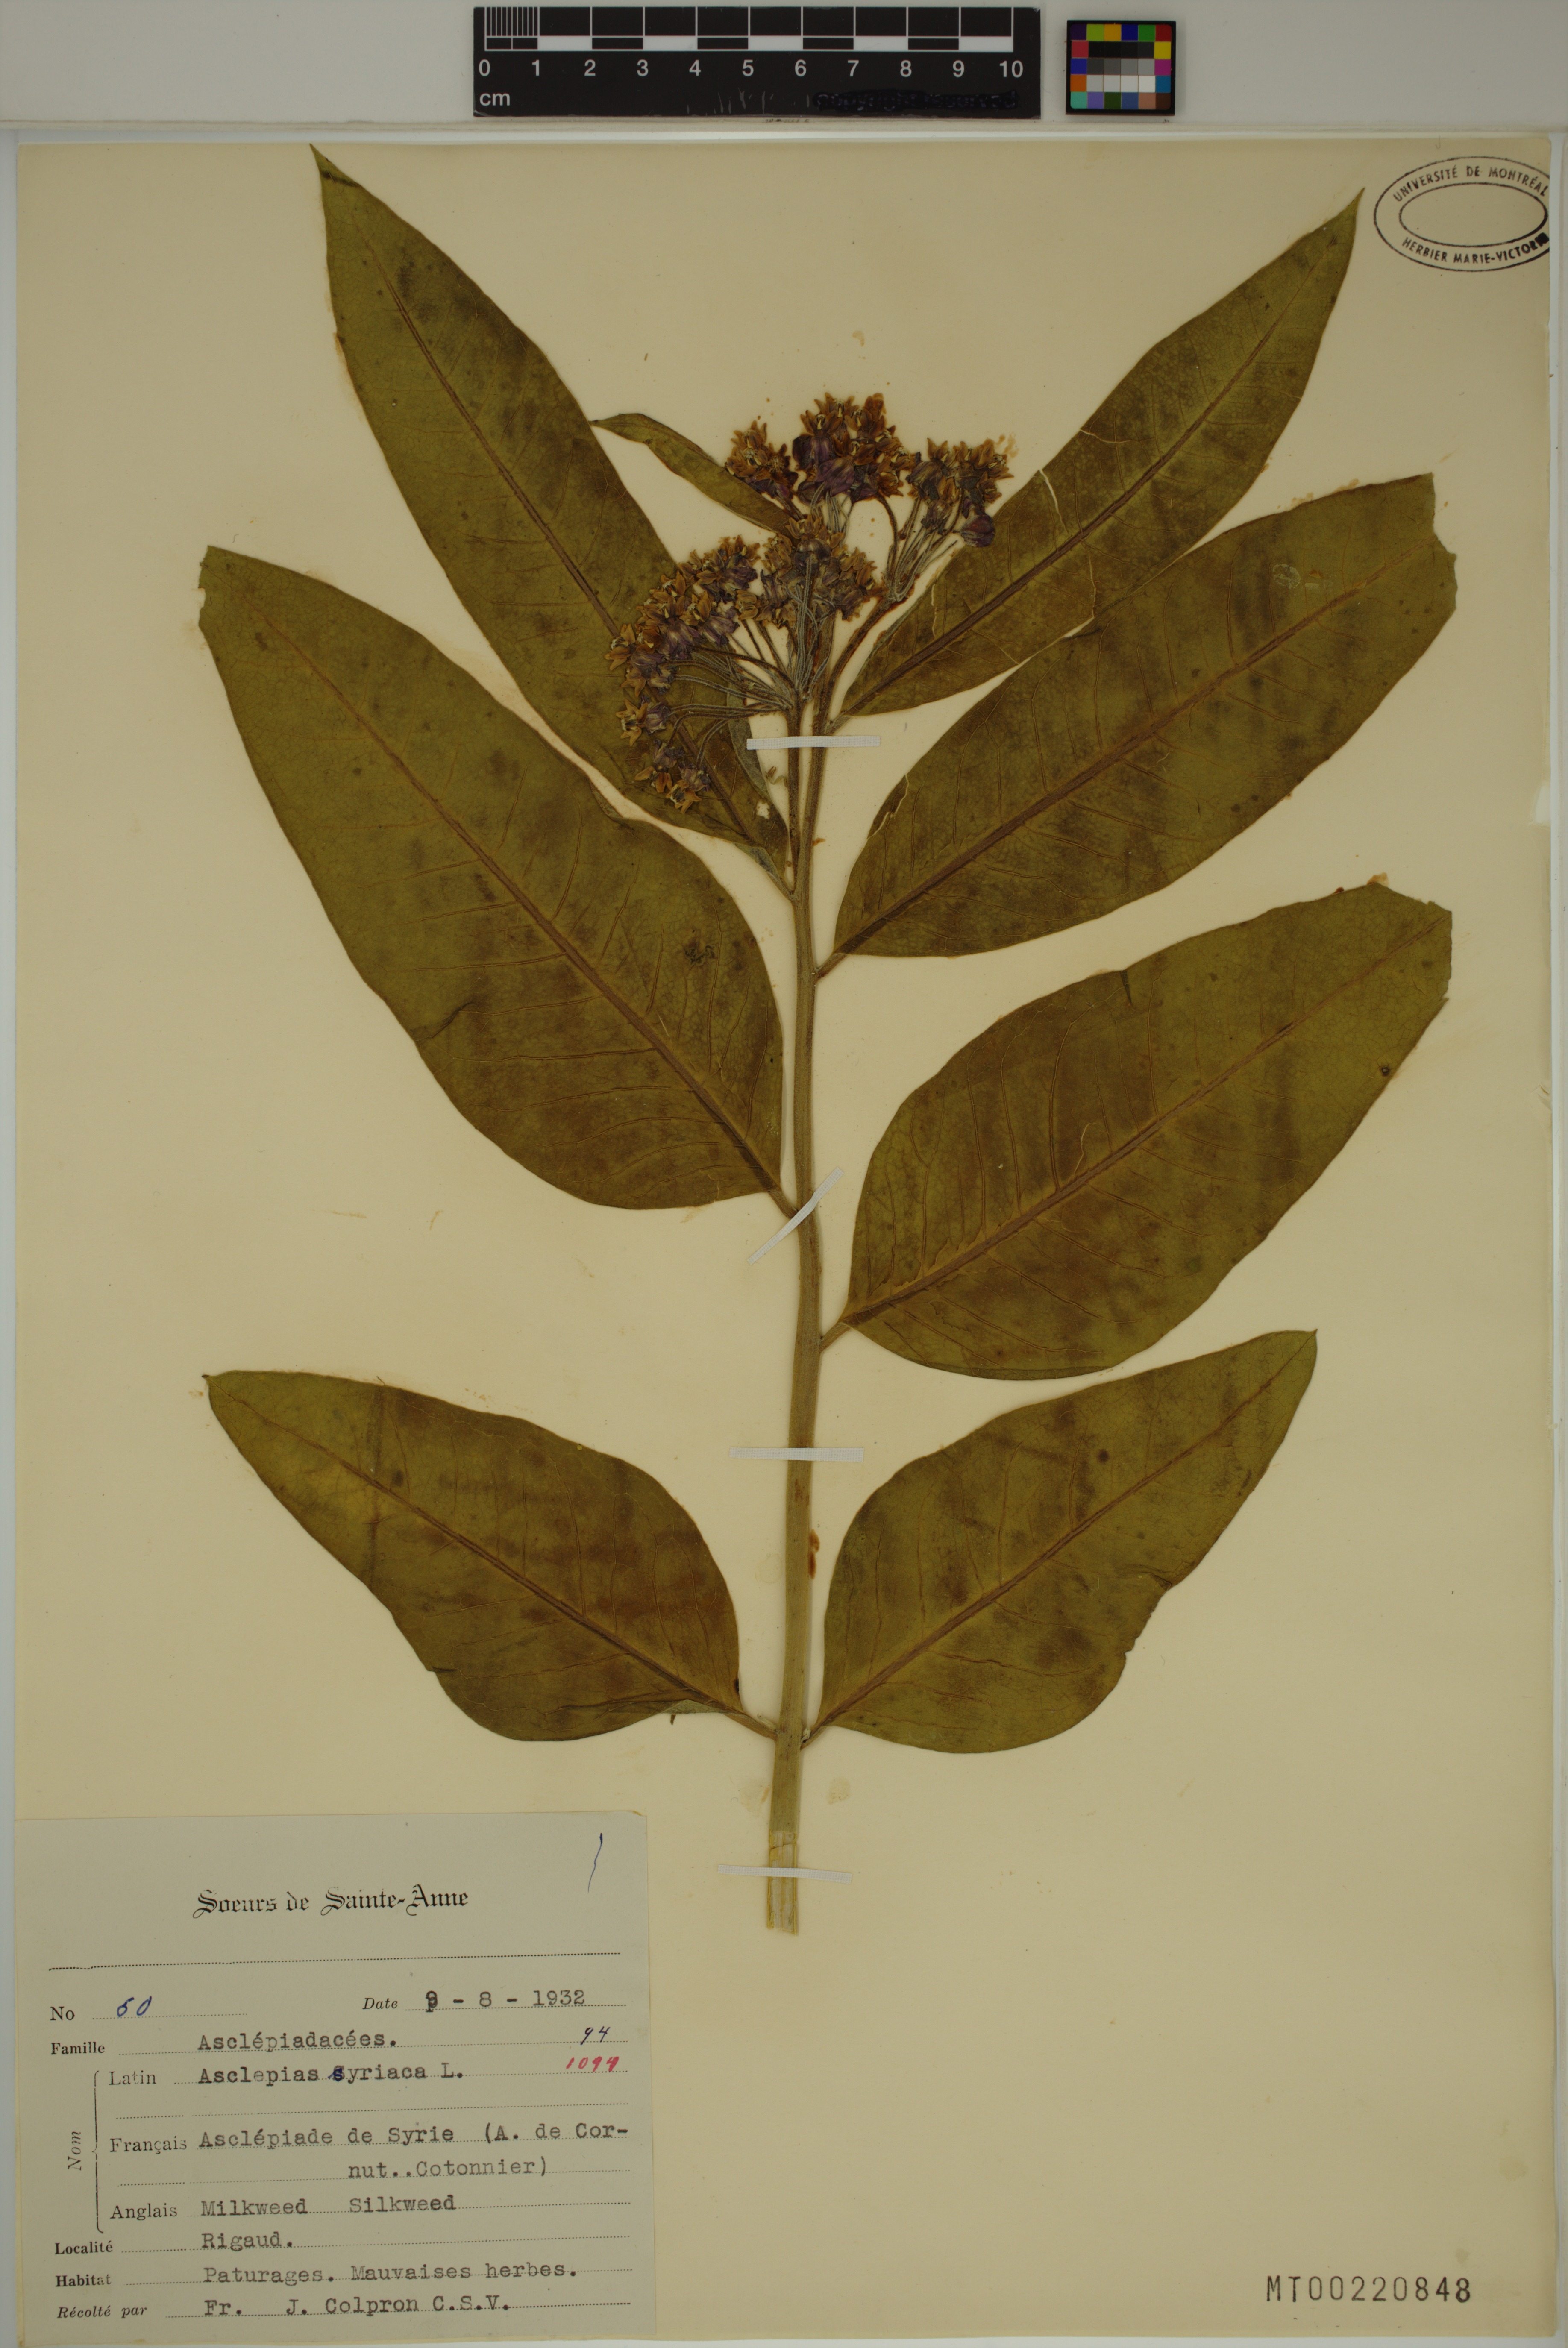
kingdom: Plantae
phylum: Tracheophyta
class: Magnoliopsida
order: Gentianales
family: Apocynaceae
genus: Asclepias
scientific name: Asclepias syriaca
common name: Common milkweed
